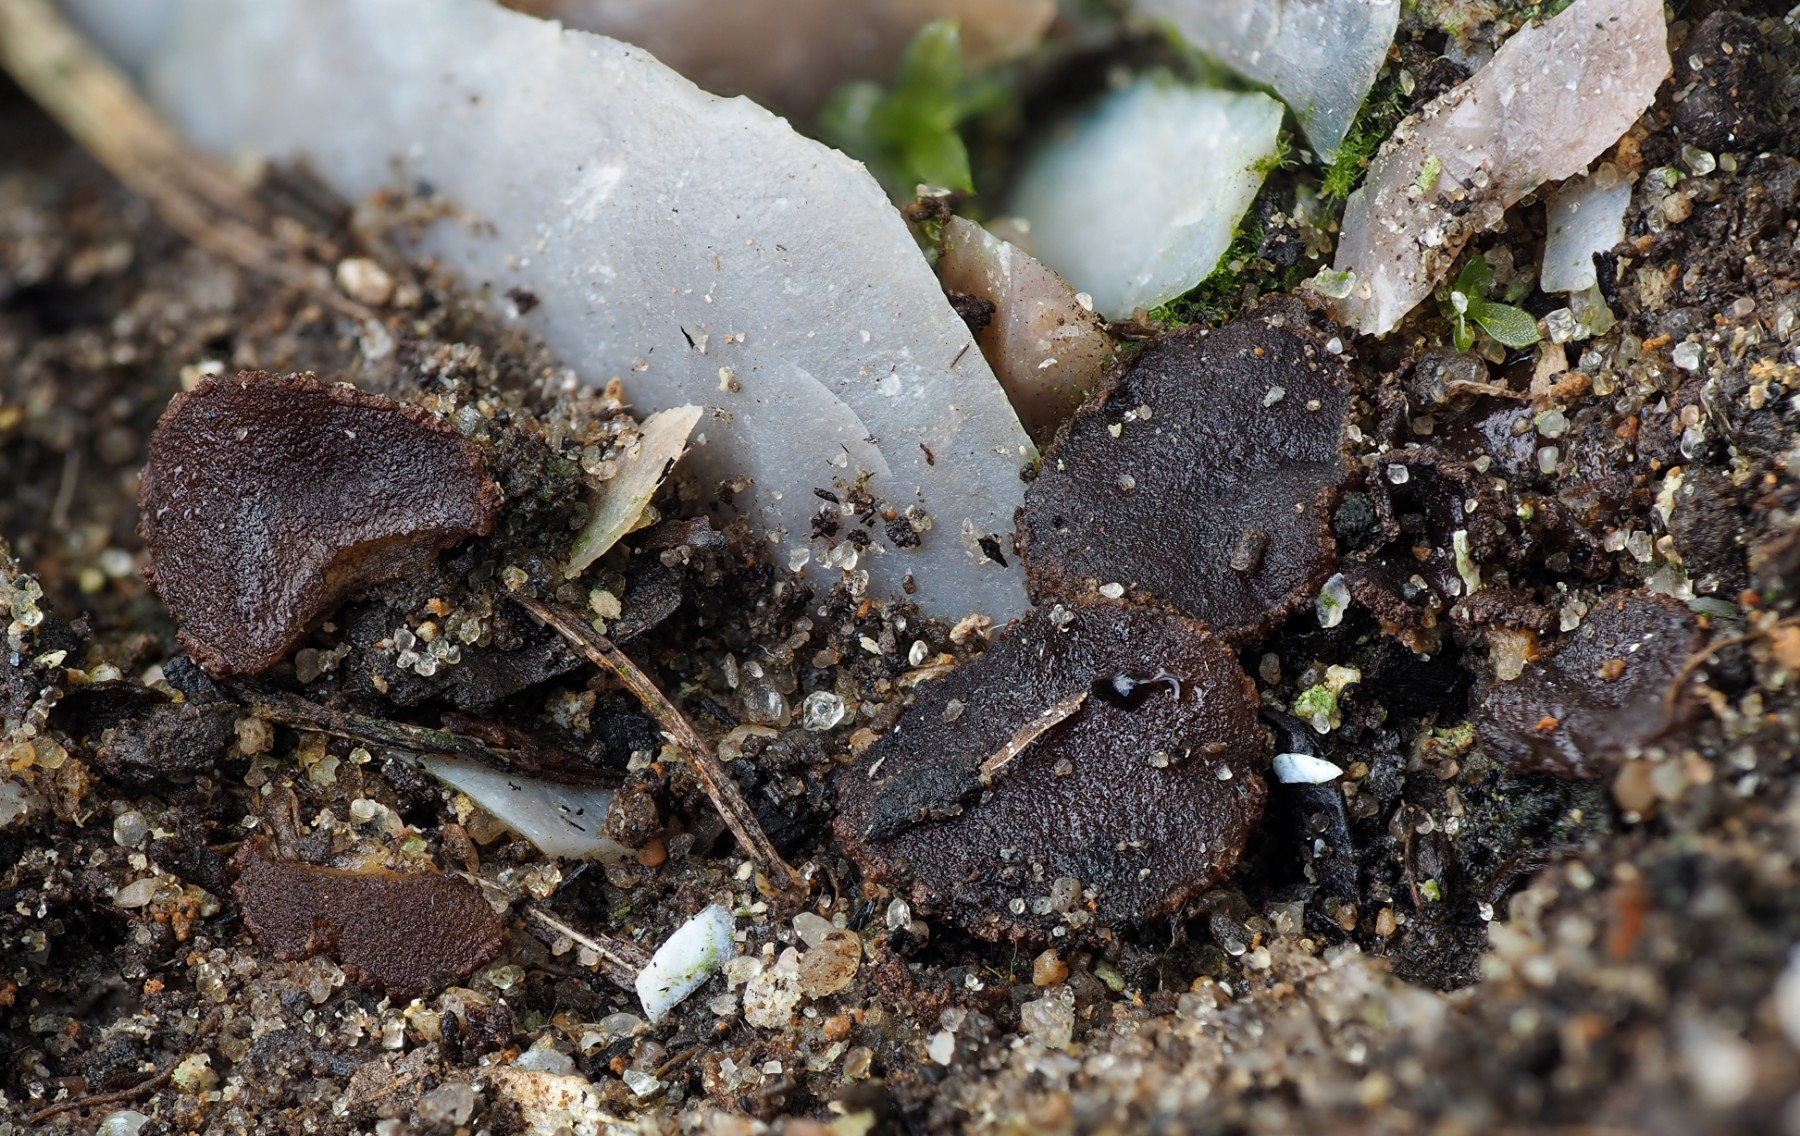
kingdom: Fungi
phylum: Ascomycota
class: Pezizomycetes
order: Pezizales
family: Ascobolaceae
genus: Ascobolus
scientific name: Ascobolus carbonarius
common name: kul-prikbæger
